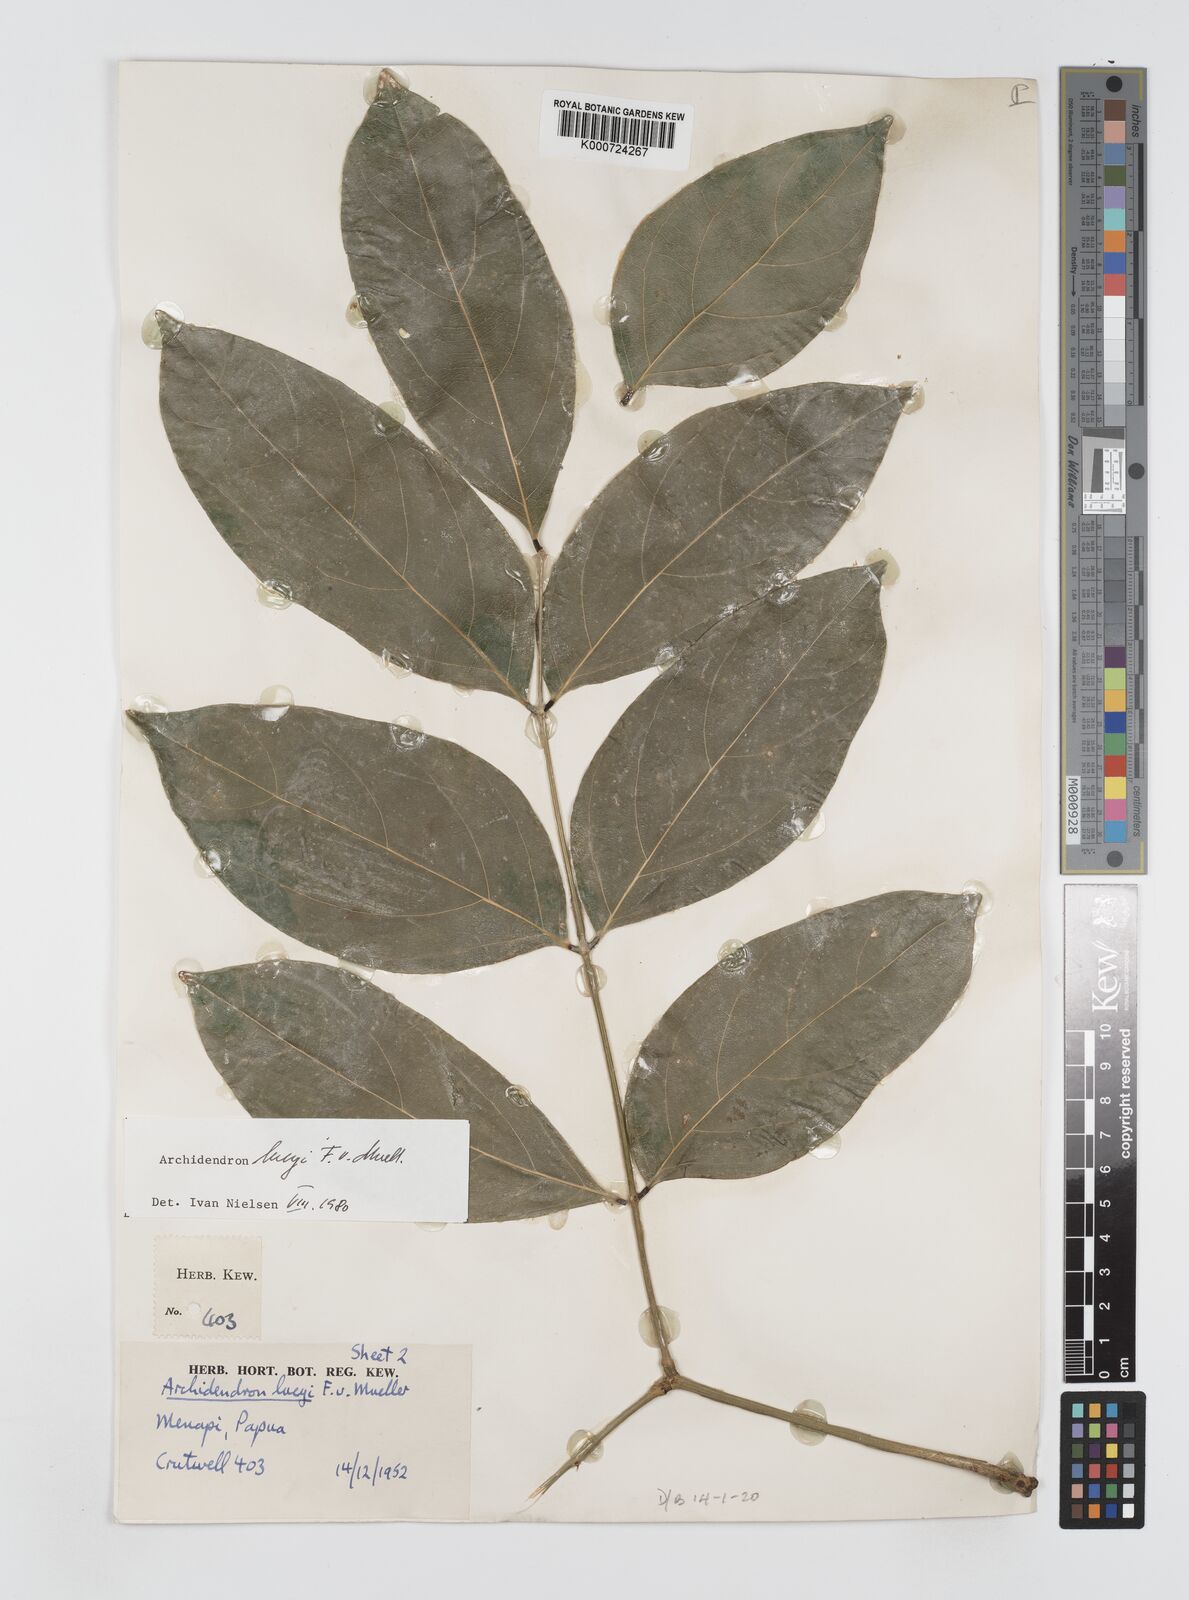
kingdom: Plantae
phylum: Tracheophyta
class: Magnoliopsida
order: Fabales
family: Fabaceae
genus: Archidendron
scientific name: Archidendron lucyi
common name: Scarlet bean
